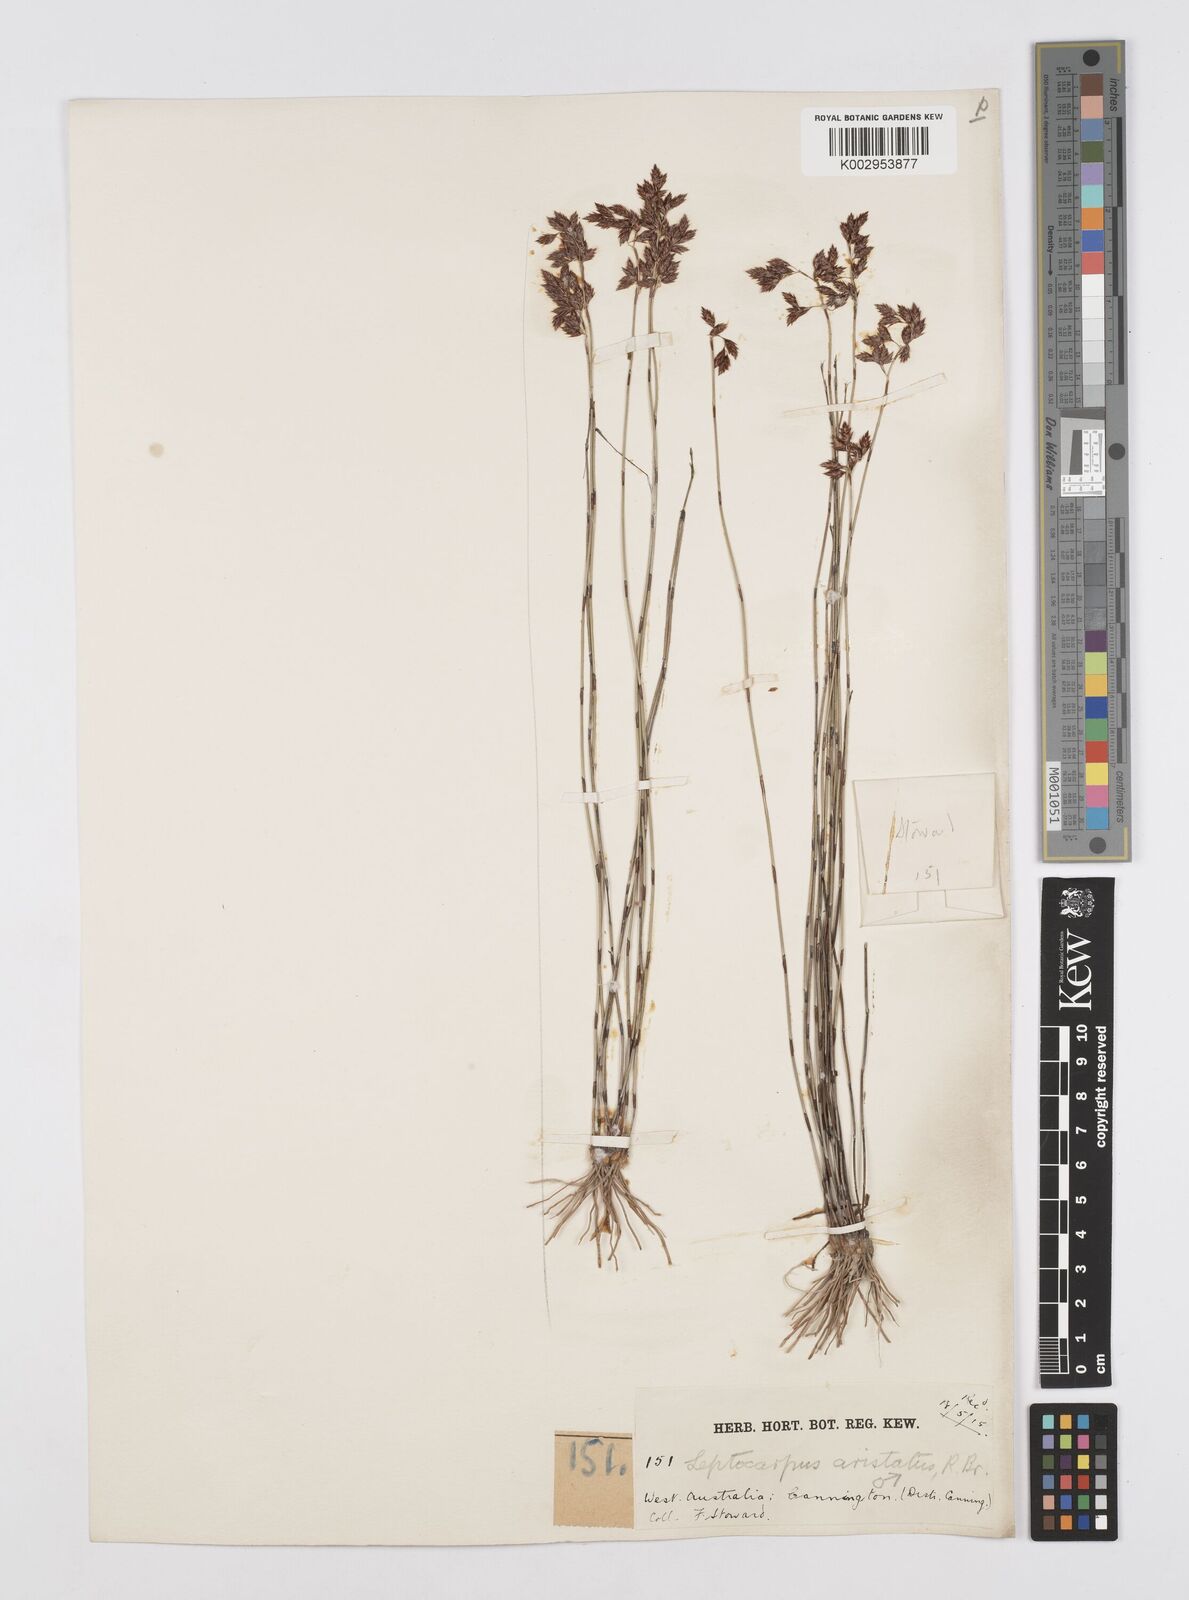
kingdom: Plantae
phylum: Tracheophyta
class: Liliopsida
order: Poales
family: Restionaceae
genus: Chaetanthus
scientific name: Chaetanthus aristatus
